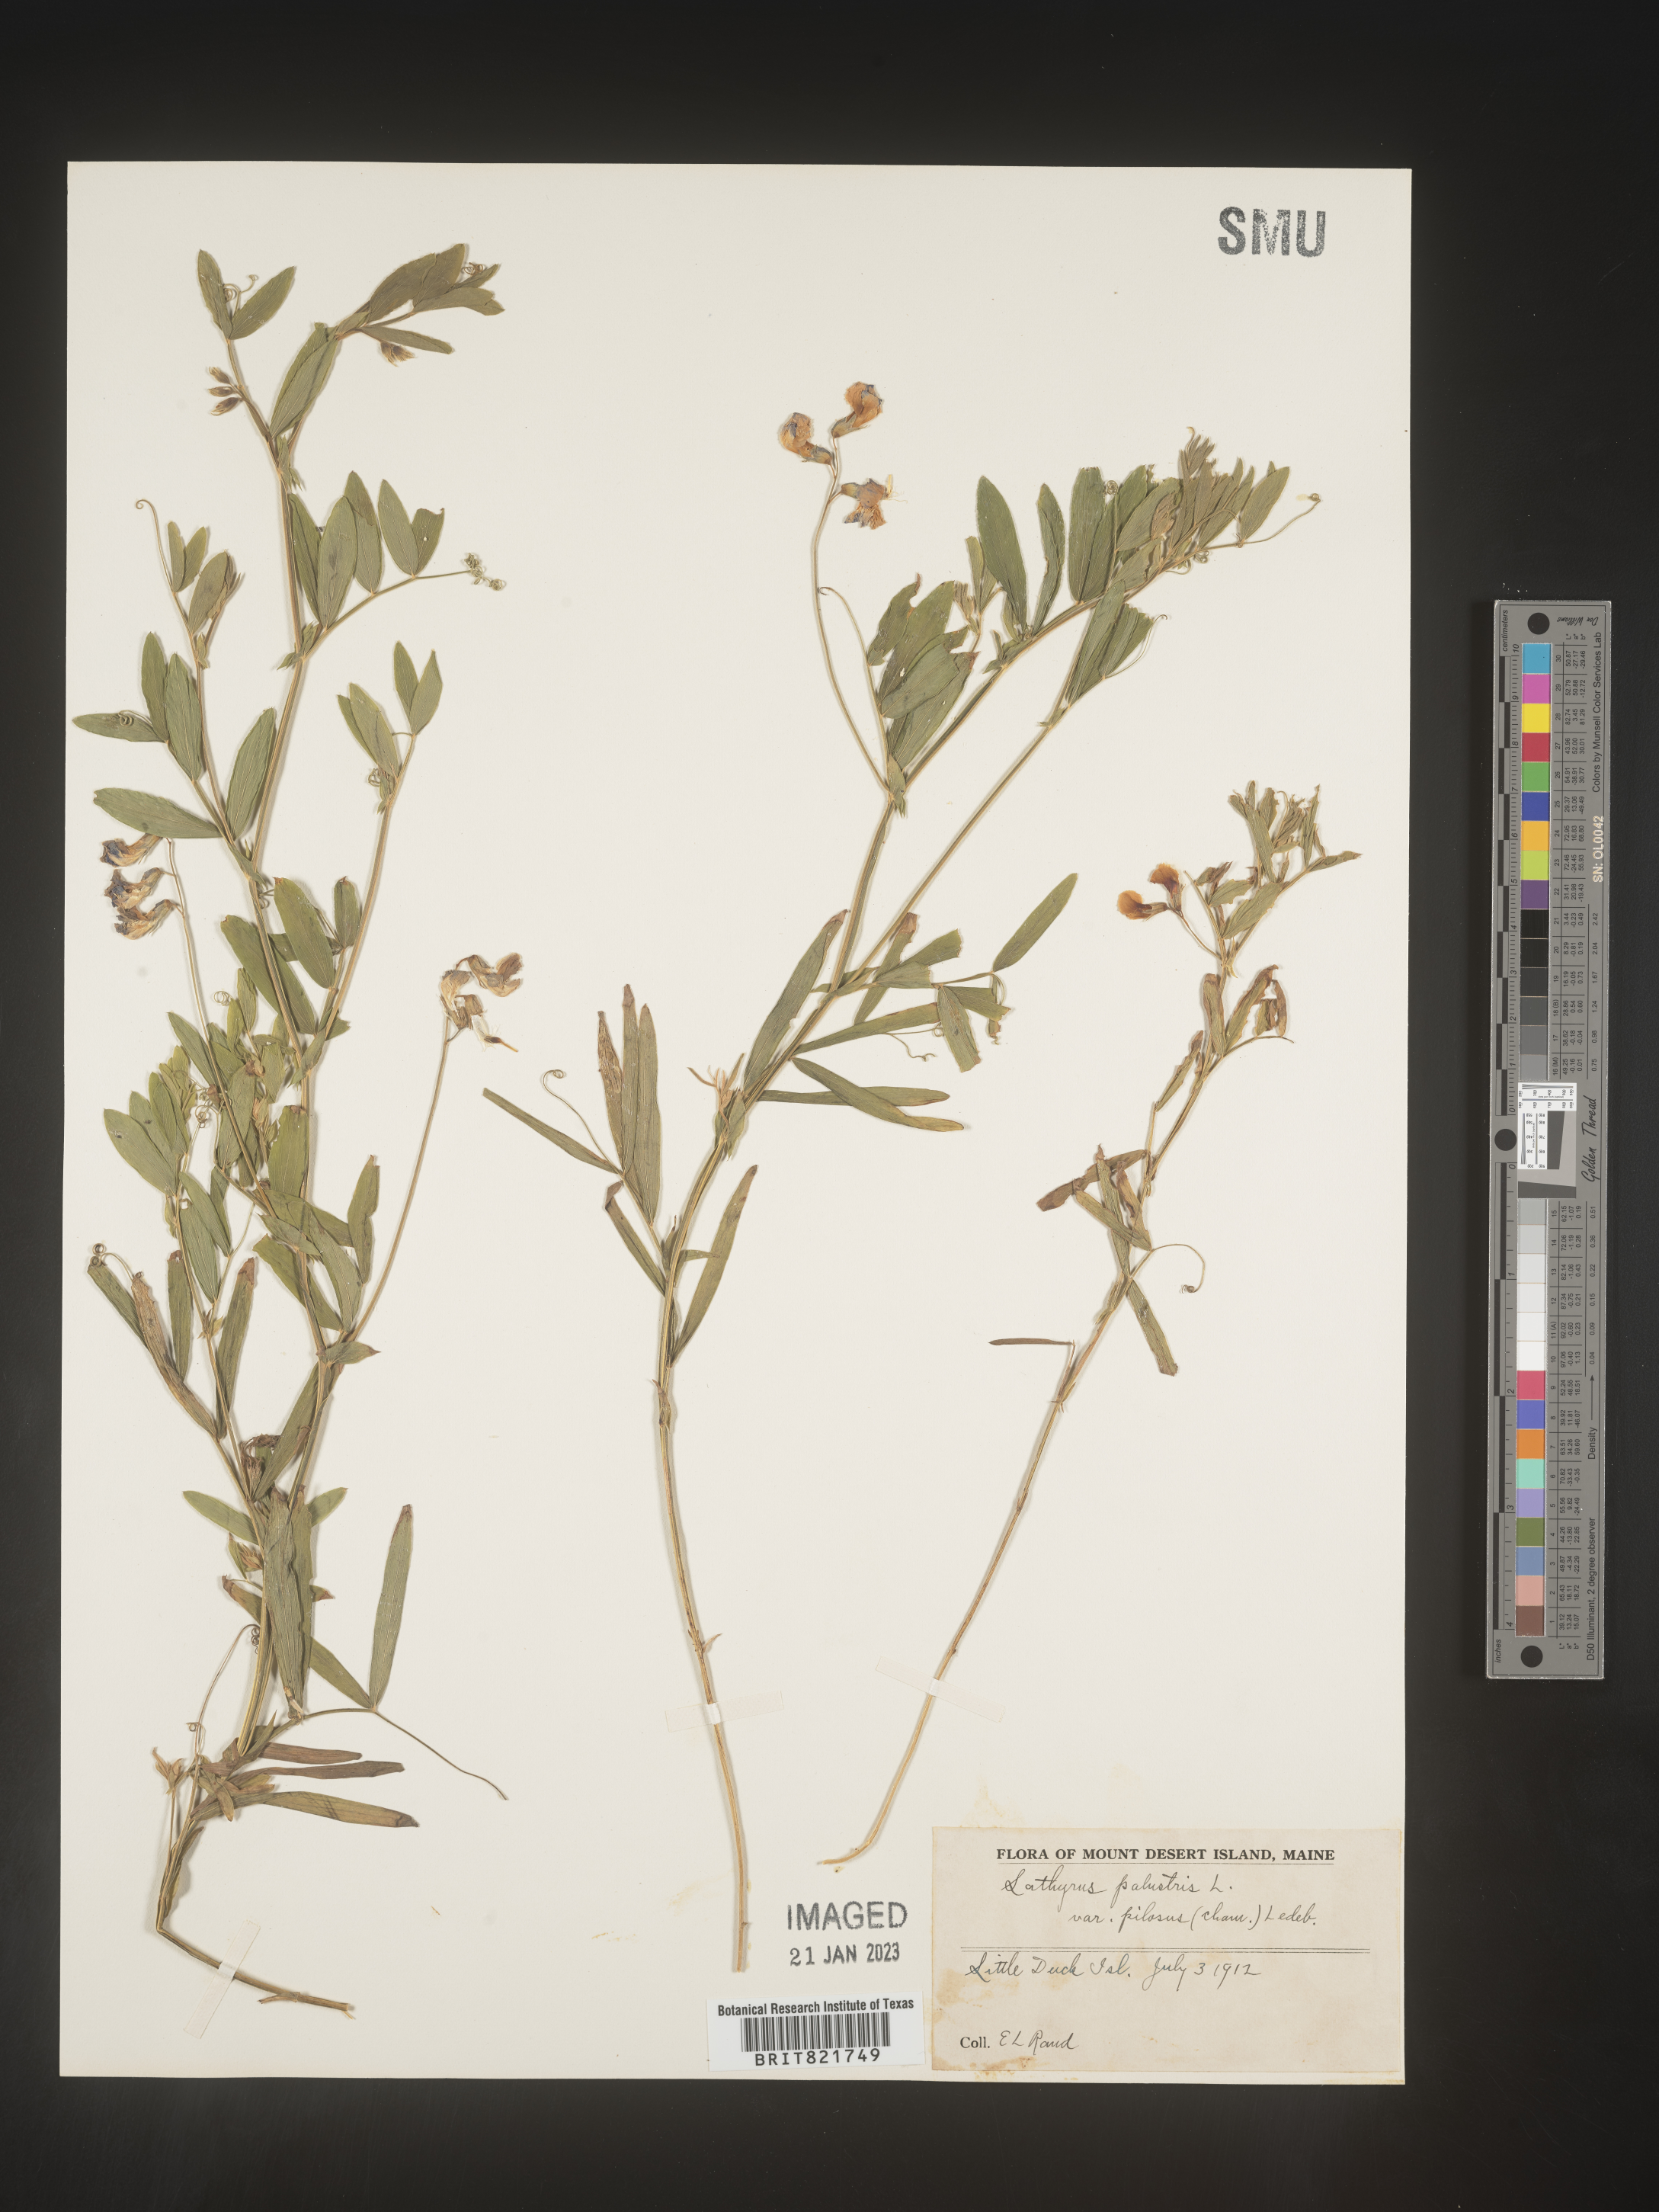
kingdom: Plantae
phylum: Tracheophyta
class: Magnoliopsida
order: Fabales
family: Fabaceae
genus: Lathyrus
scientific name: Lathyrus palustris
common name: Marsh pea
